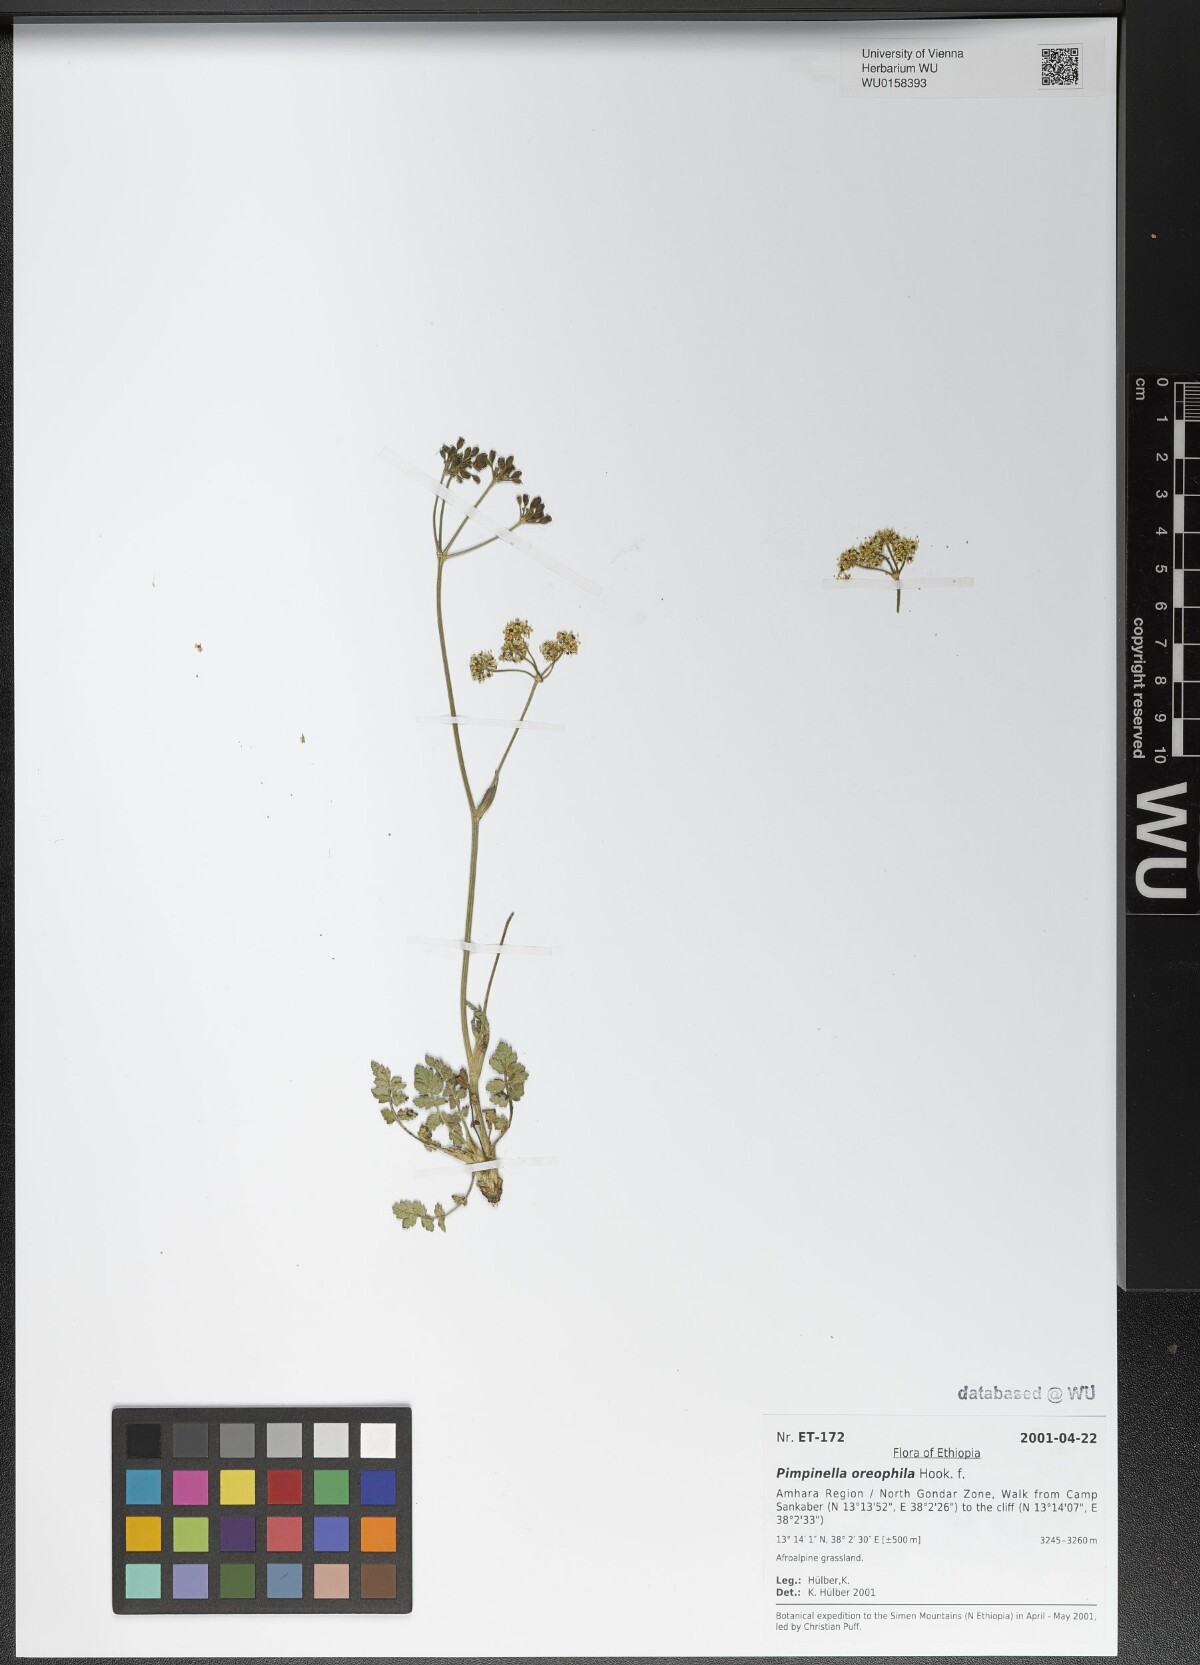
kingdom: Plantae
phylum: Tracheophyta
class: Magnoliopsida
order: Apiales
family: Apiaceae
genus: Pimpinella
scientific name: Pimpinella oreophila
